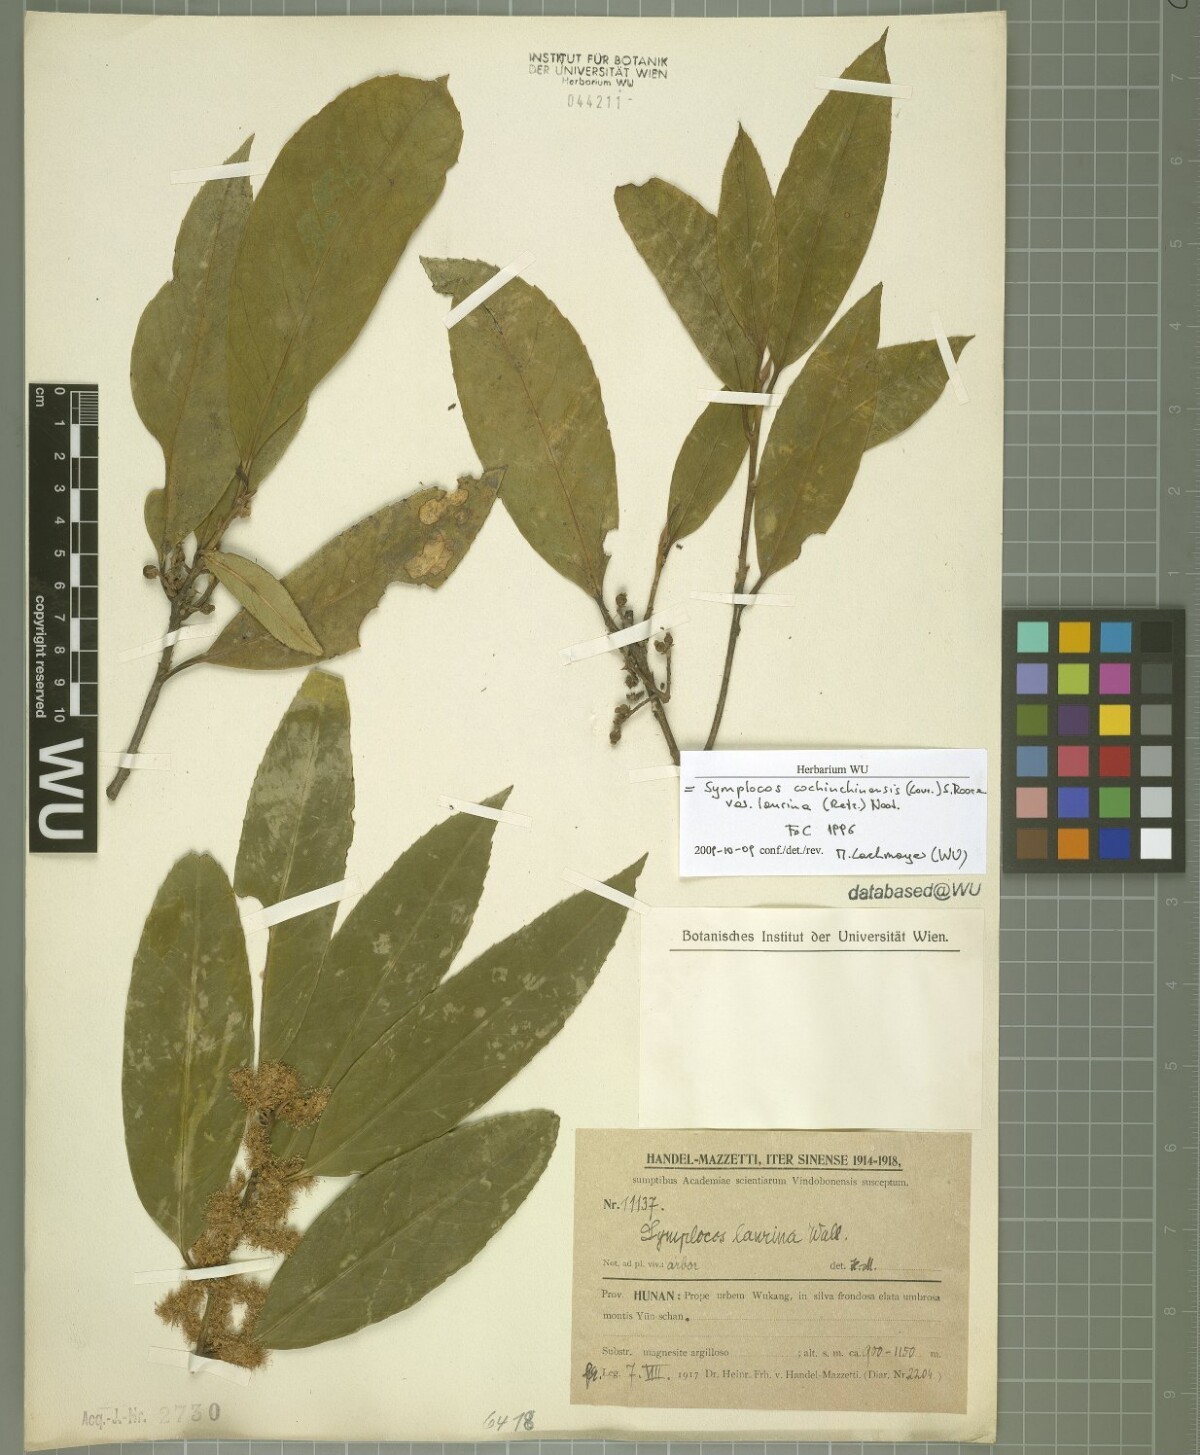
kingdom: Plantae
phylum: Tracheophyta
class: Magnoliopsida
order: Ericales
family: Symplocaceae
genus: Symplocos
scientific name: Symplocos acuminata
